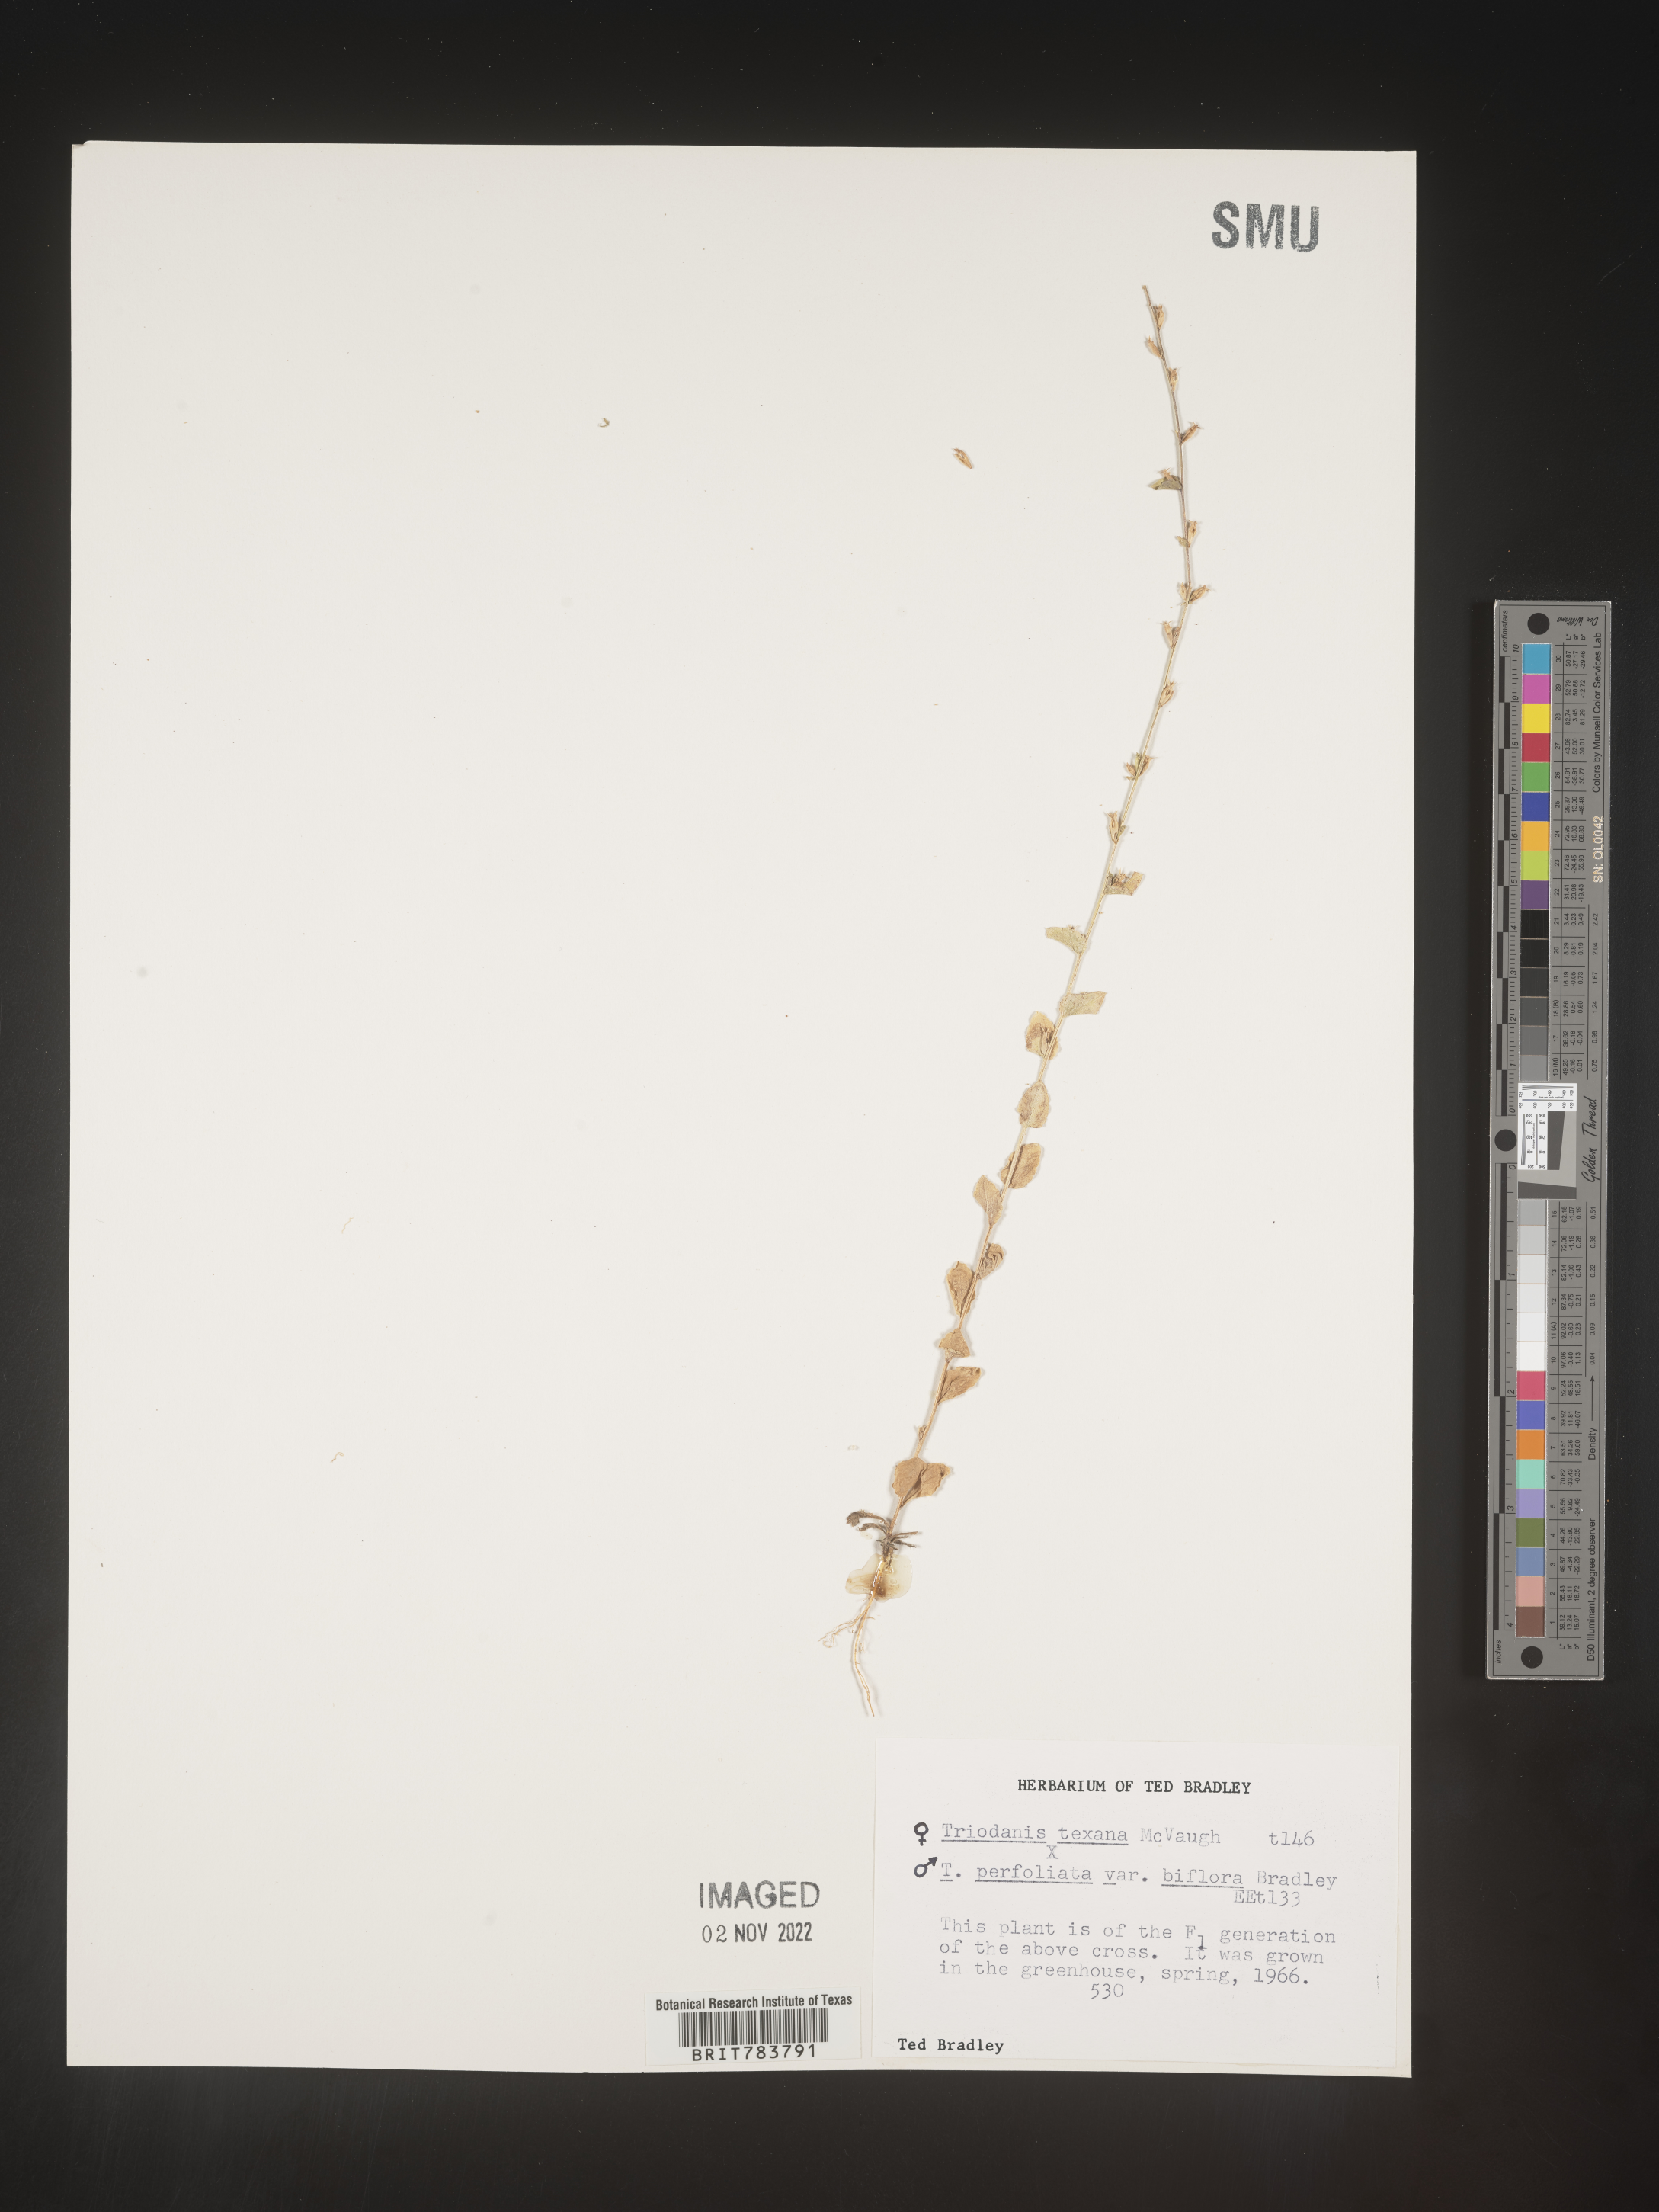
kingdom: Plantae
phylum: Tracheophyta
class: Magnoliopsida
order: Asterales
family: Campanulaceae
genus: Triodanis
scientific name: Triodanis
